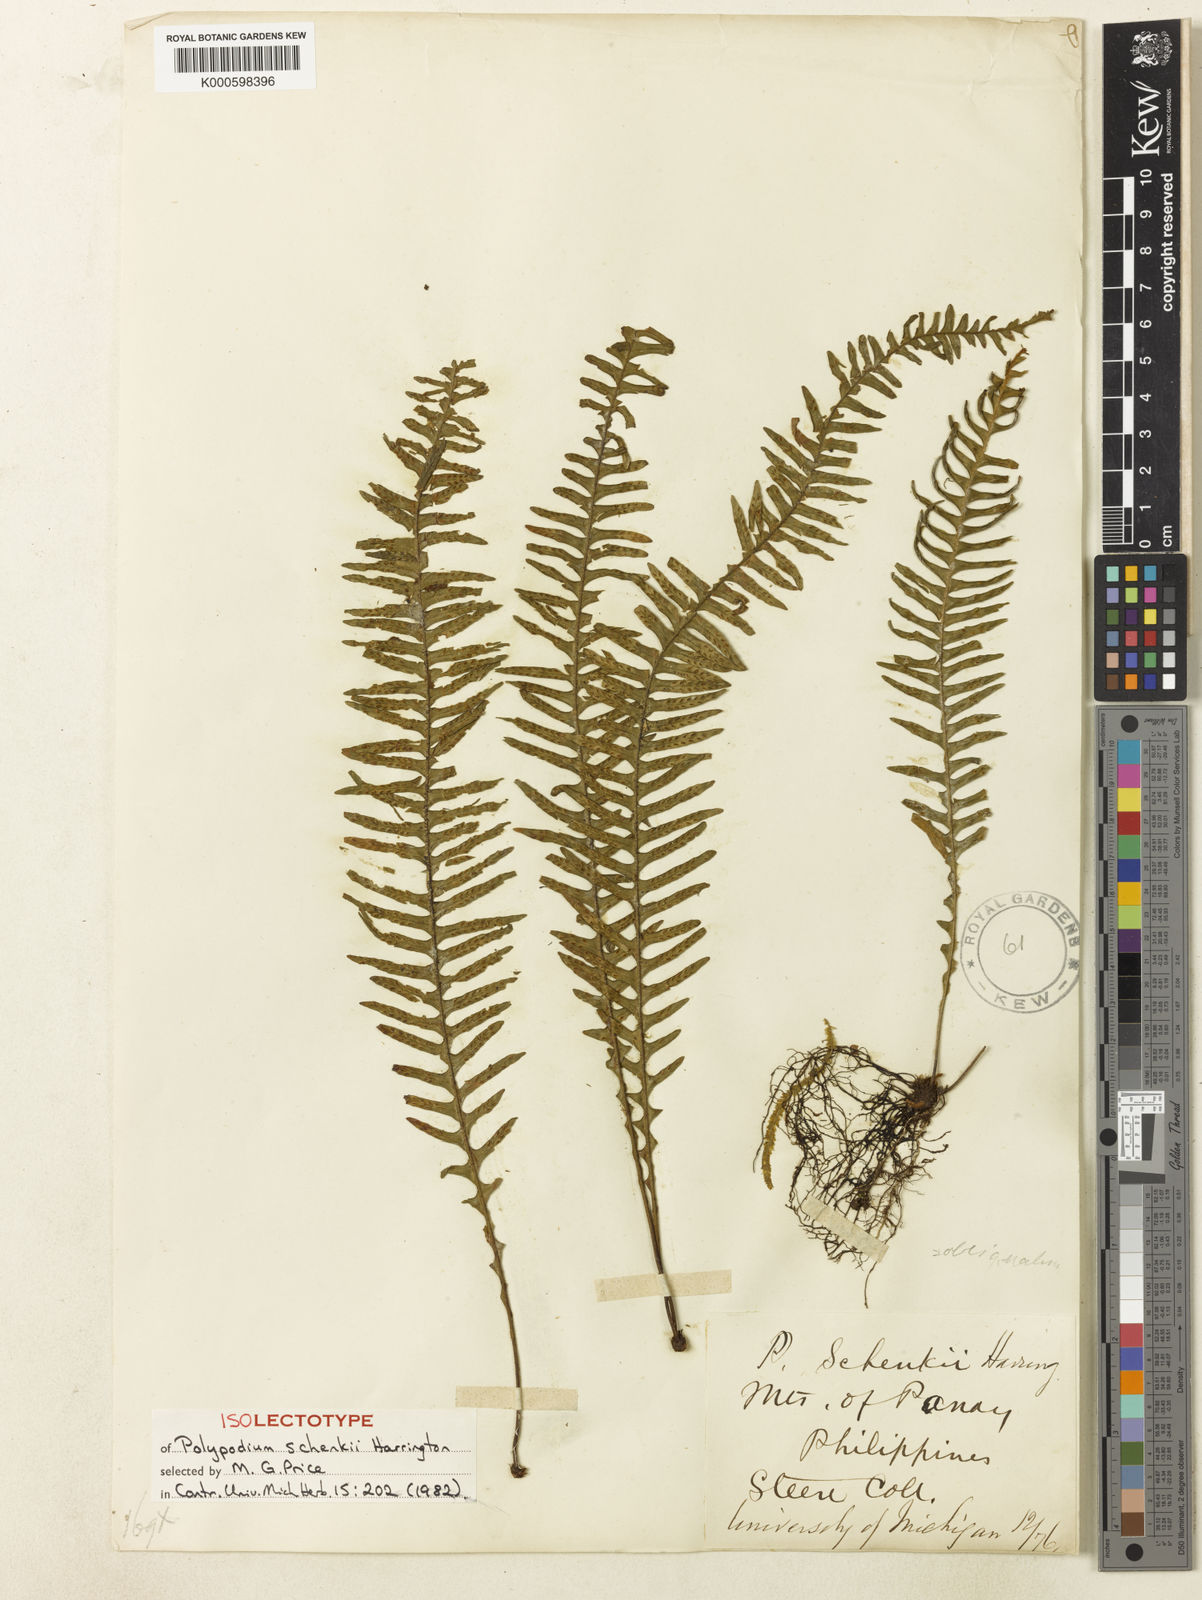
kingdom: Plantae
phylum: Tracheophyta
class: Polypodiopsida
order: Polypodiales
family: Polypodiaceae
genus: Prosaptia
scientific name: Prosaptia obliquata
